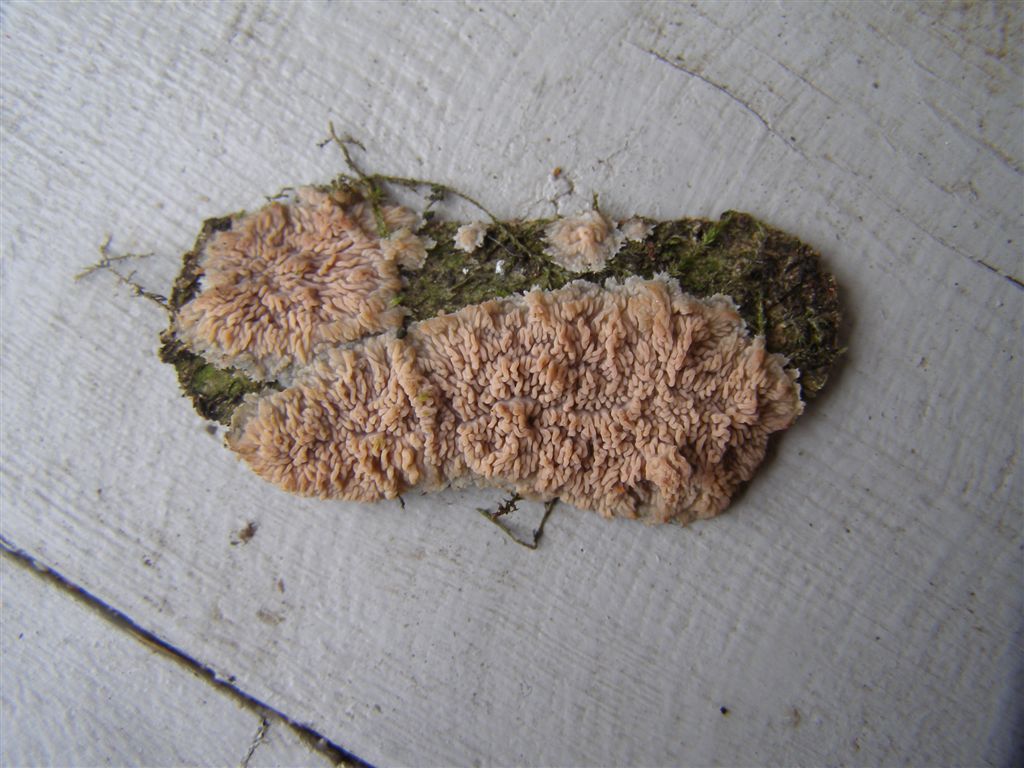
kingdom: Fungi
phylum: Basidiomycota
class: Agaricomycetes
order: Polyporales
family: Meruliaceae
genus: Phlebia
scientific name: Phlebia radiata
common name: stråle-åresvamp
